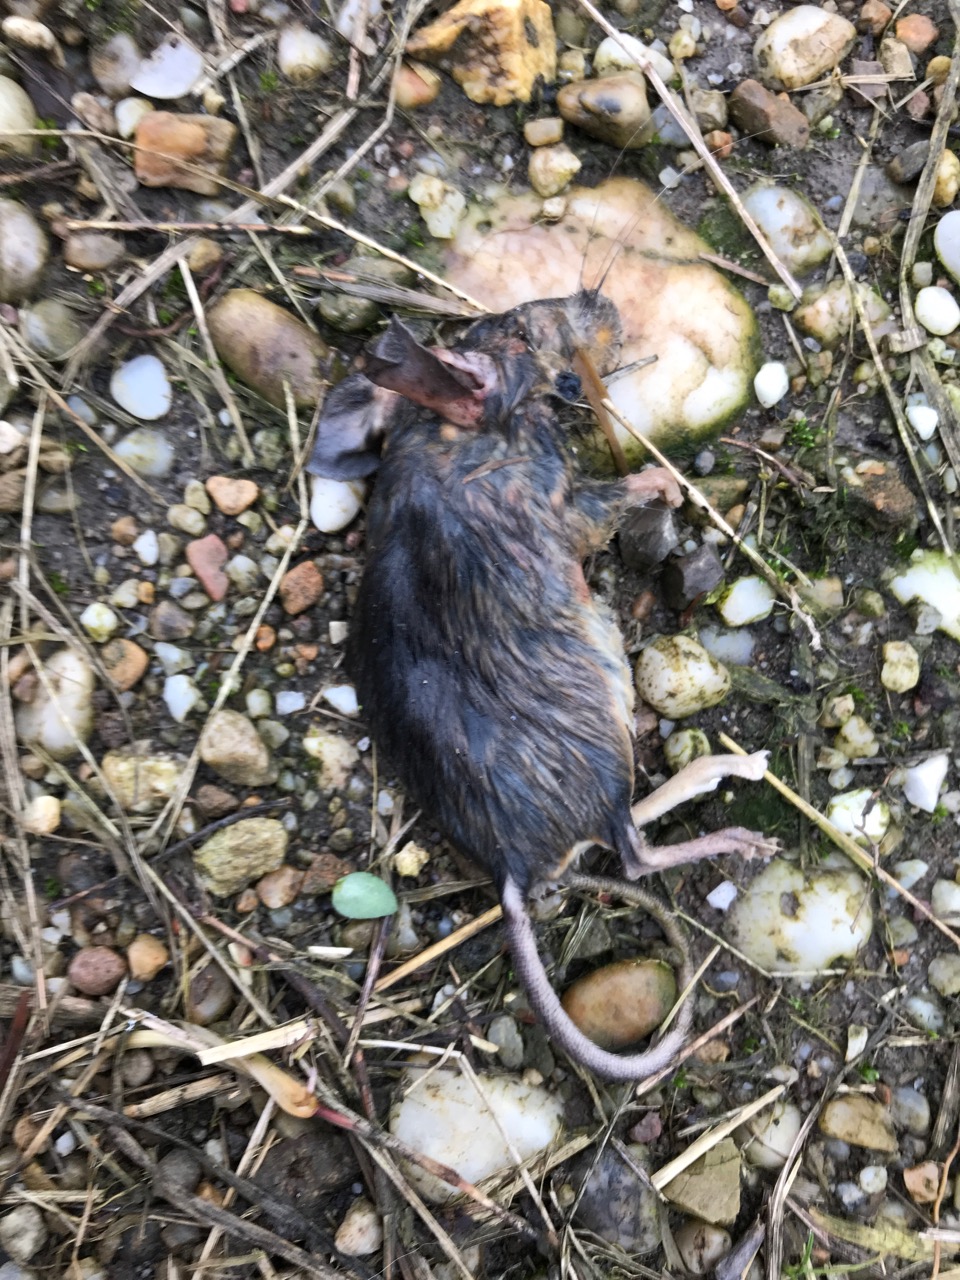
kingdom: Animalia
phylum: Chordata
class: Mammalia
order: Rodentia
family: Muridae
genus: Apodemus
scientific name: Apodemus
